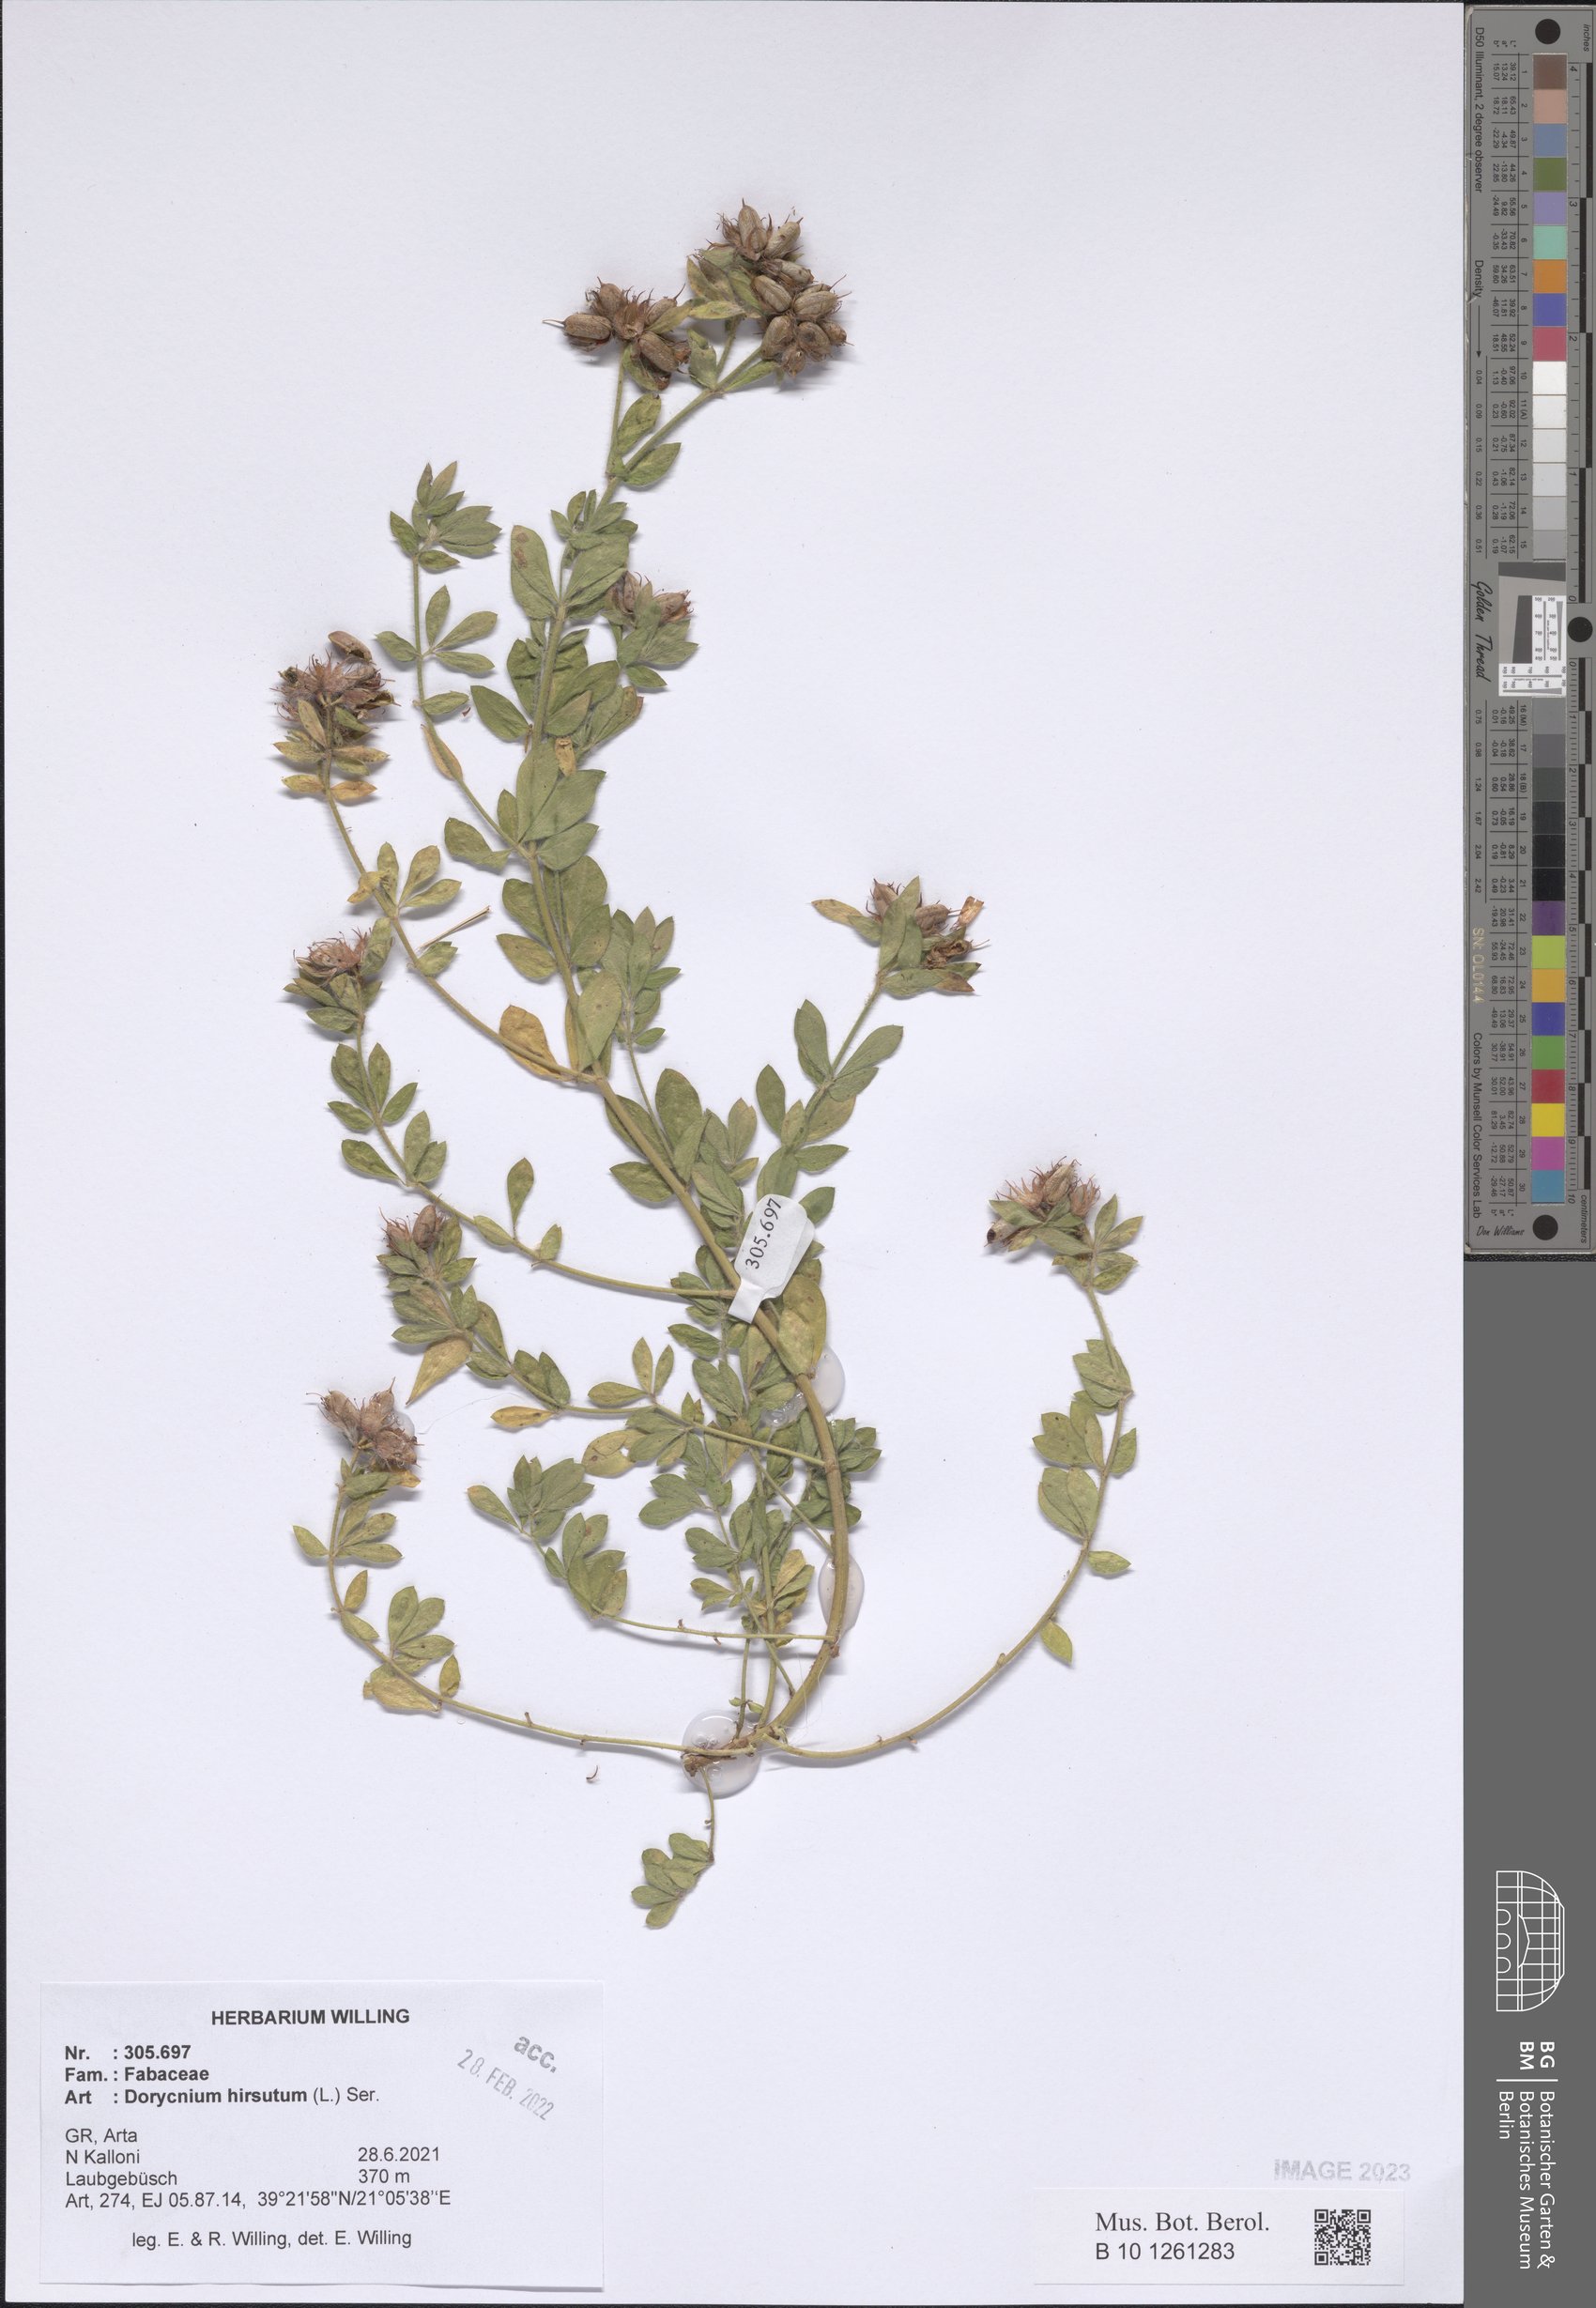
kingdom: Plantae
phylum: Tracheophyta
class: Magnoliopsida
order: Fabales
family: Fabaceae
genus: Lotus
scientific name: Lotus hirsutus
